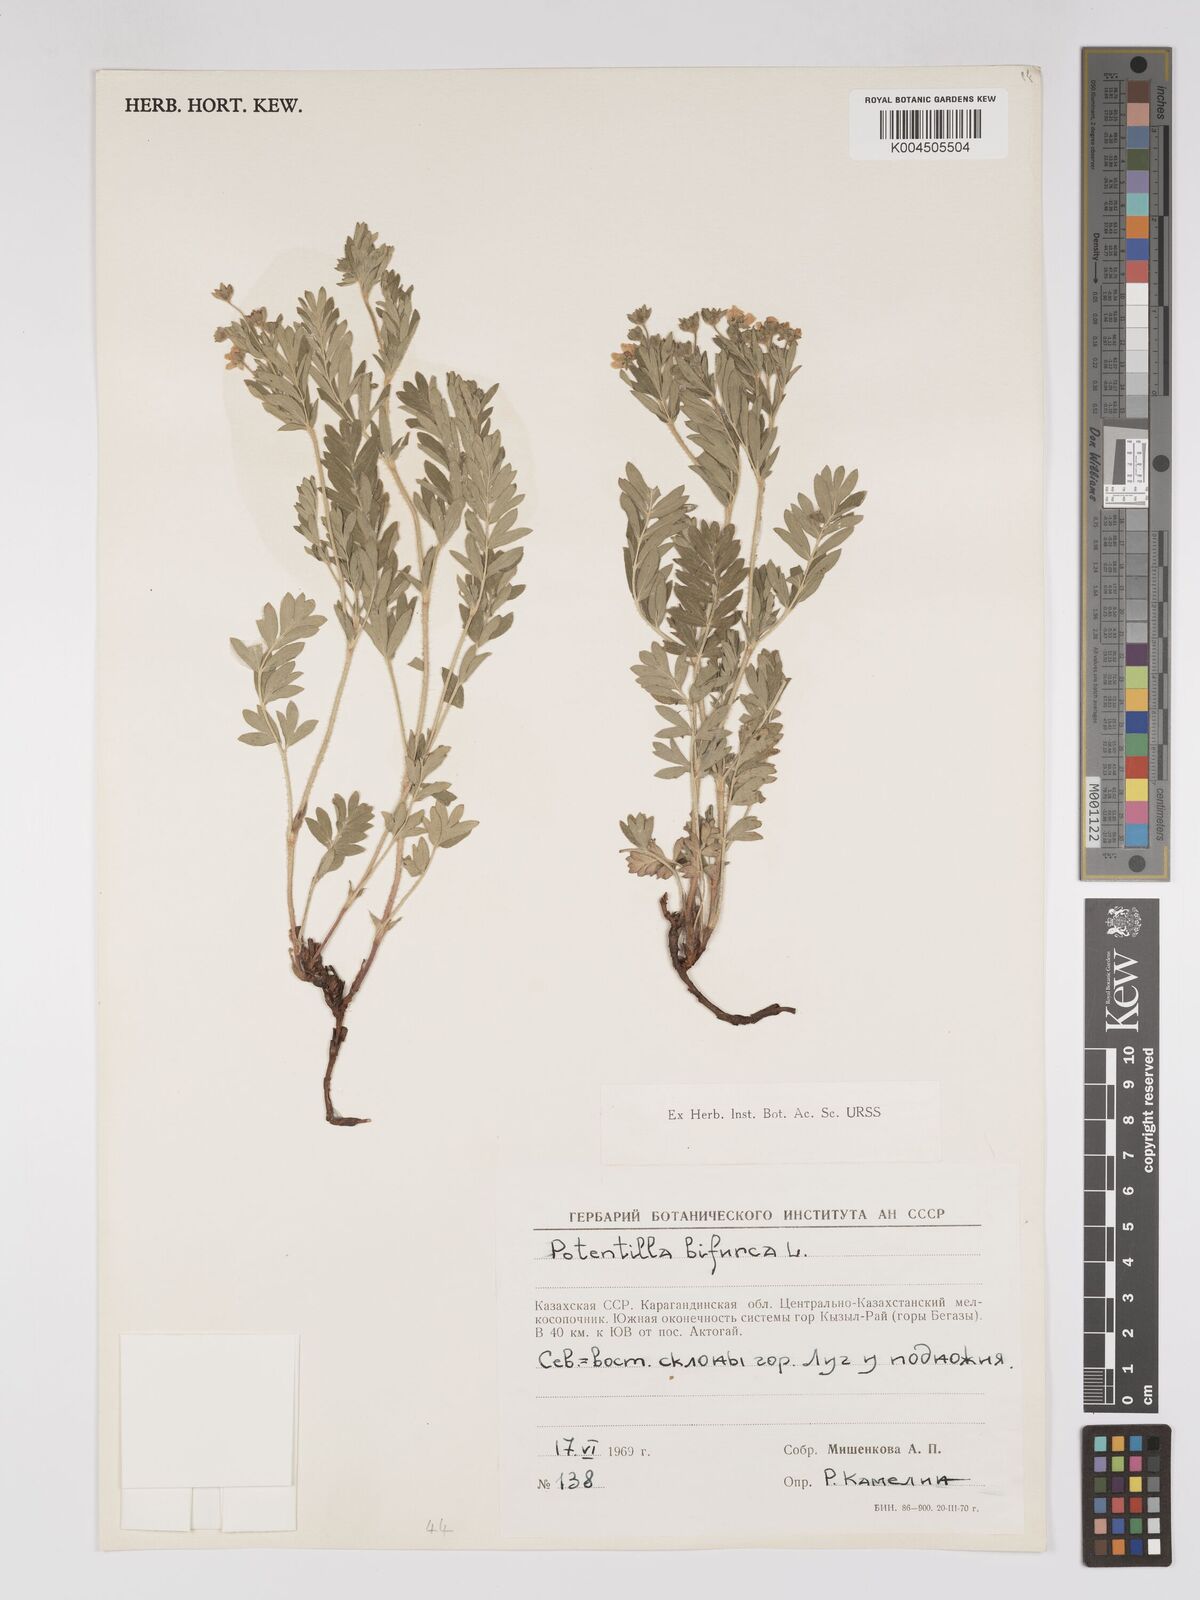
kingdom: Plantae
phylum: Tracheophyta
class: Magnoliopsida
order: Rosales
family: Rosaceae
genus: Sibbaldianthe
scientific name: Sibbaldianthe bifurca
